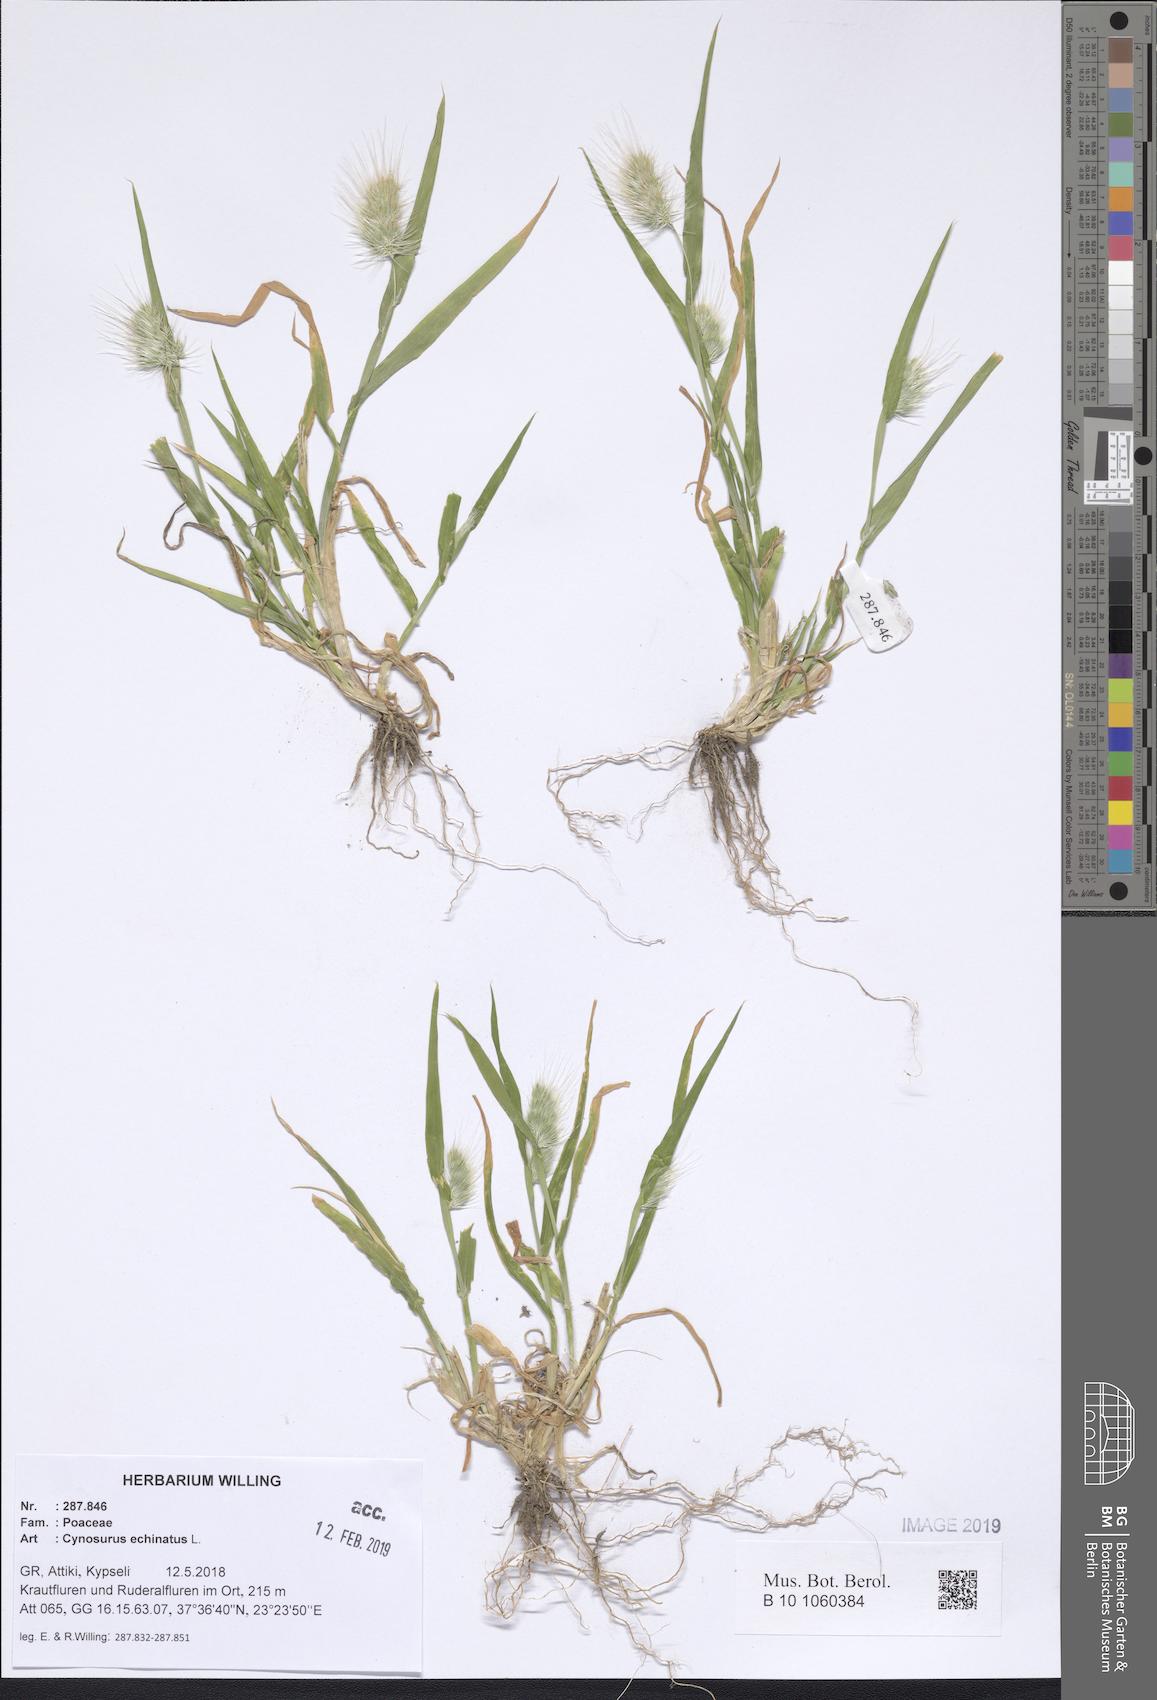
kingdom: Plantae
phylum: Tracheophyta
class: Liliopsida
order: Poales
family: Poaceae
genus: Cynosurus
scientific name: Cynosurus echinatus
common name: Rough dog's-tail
